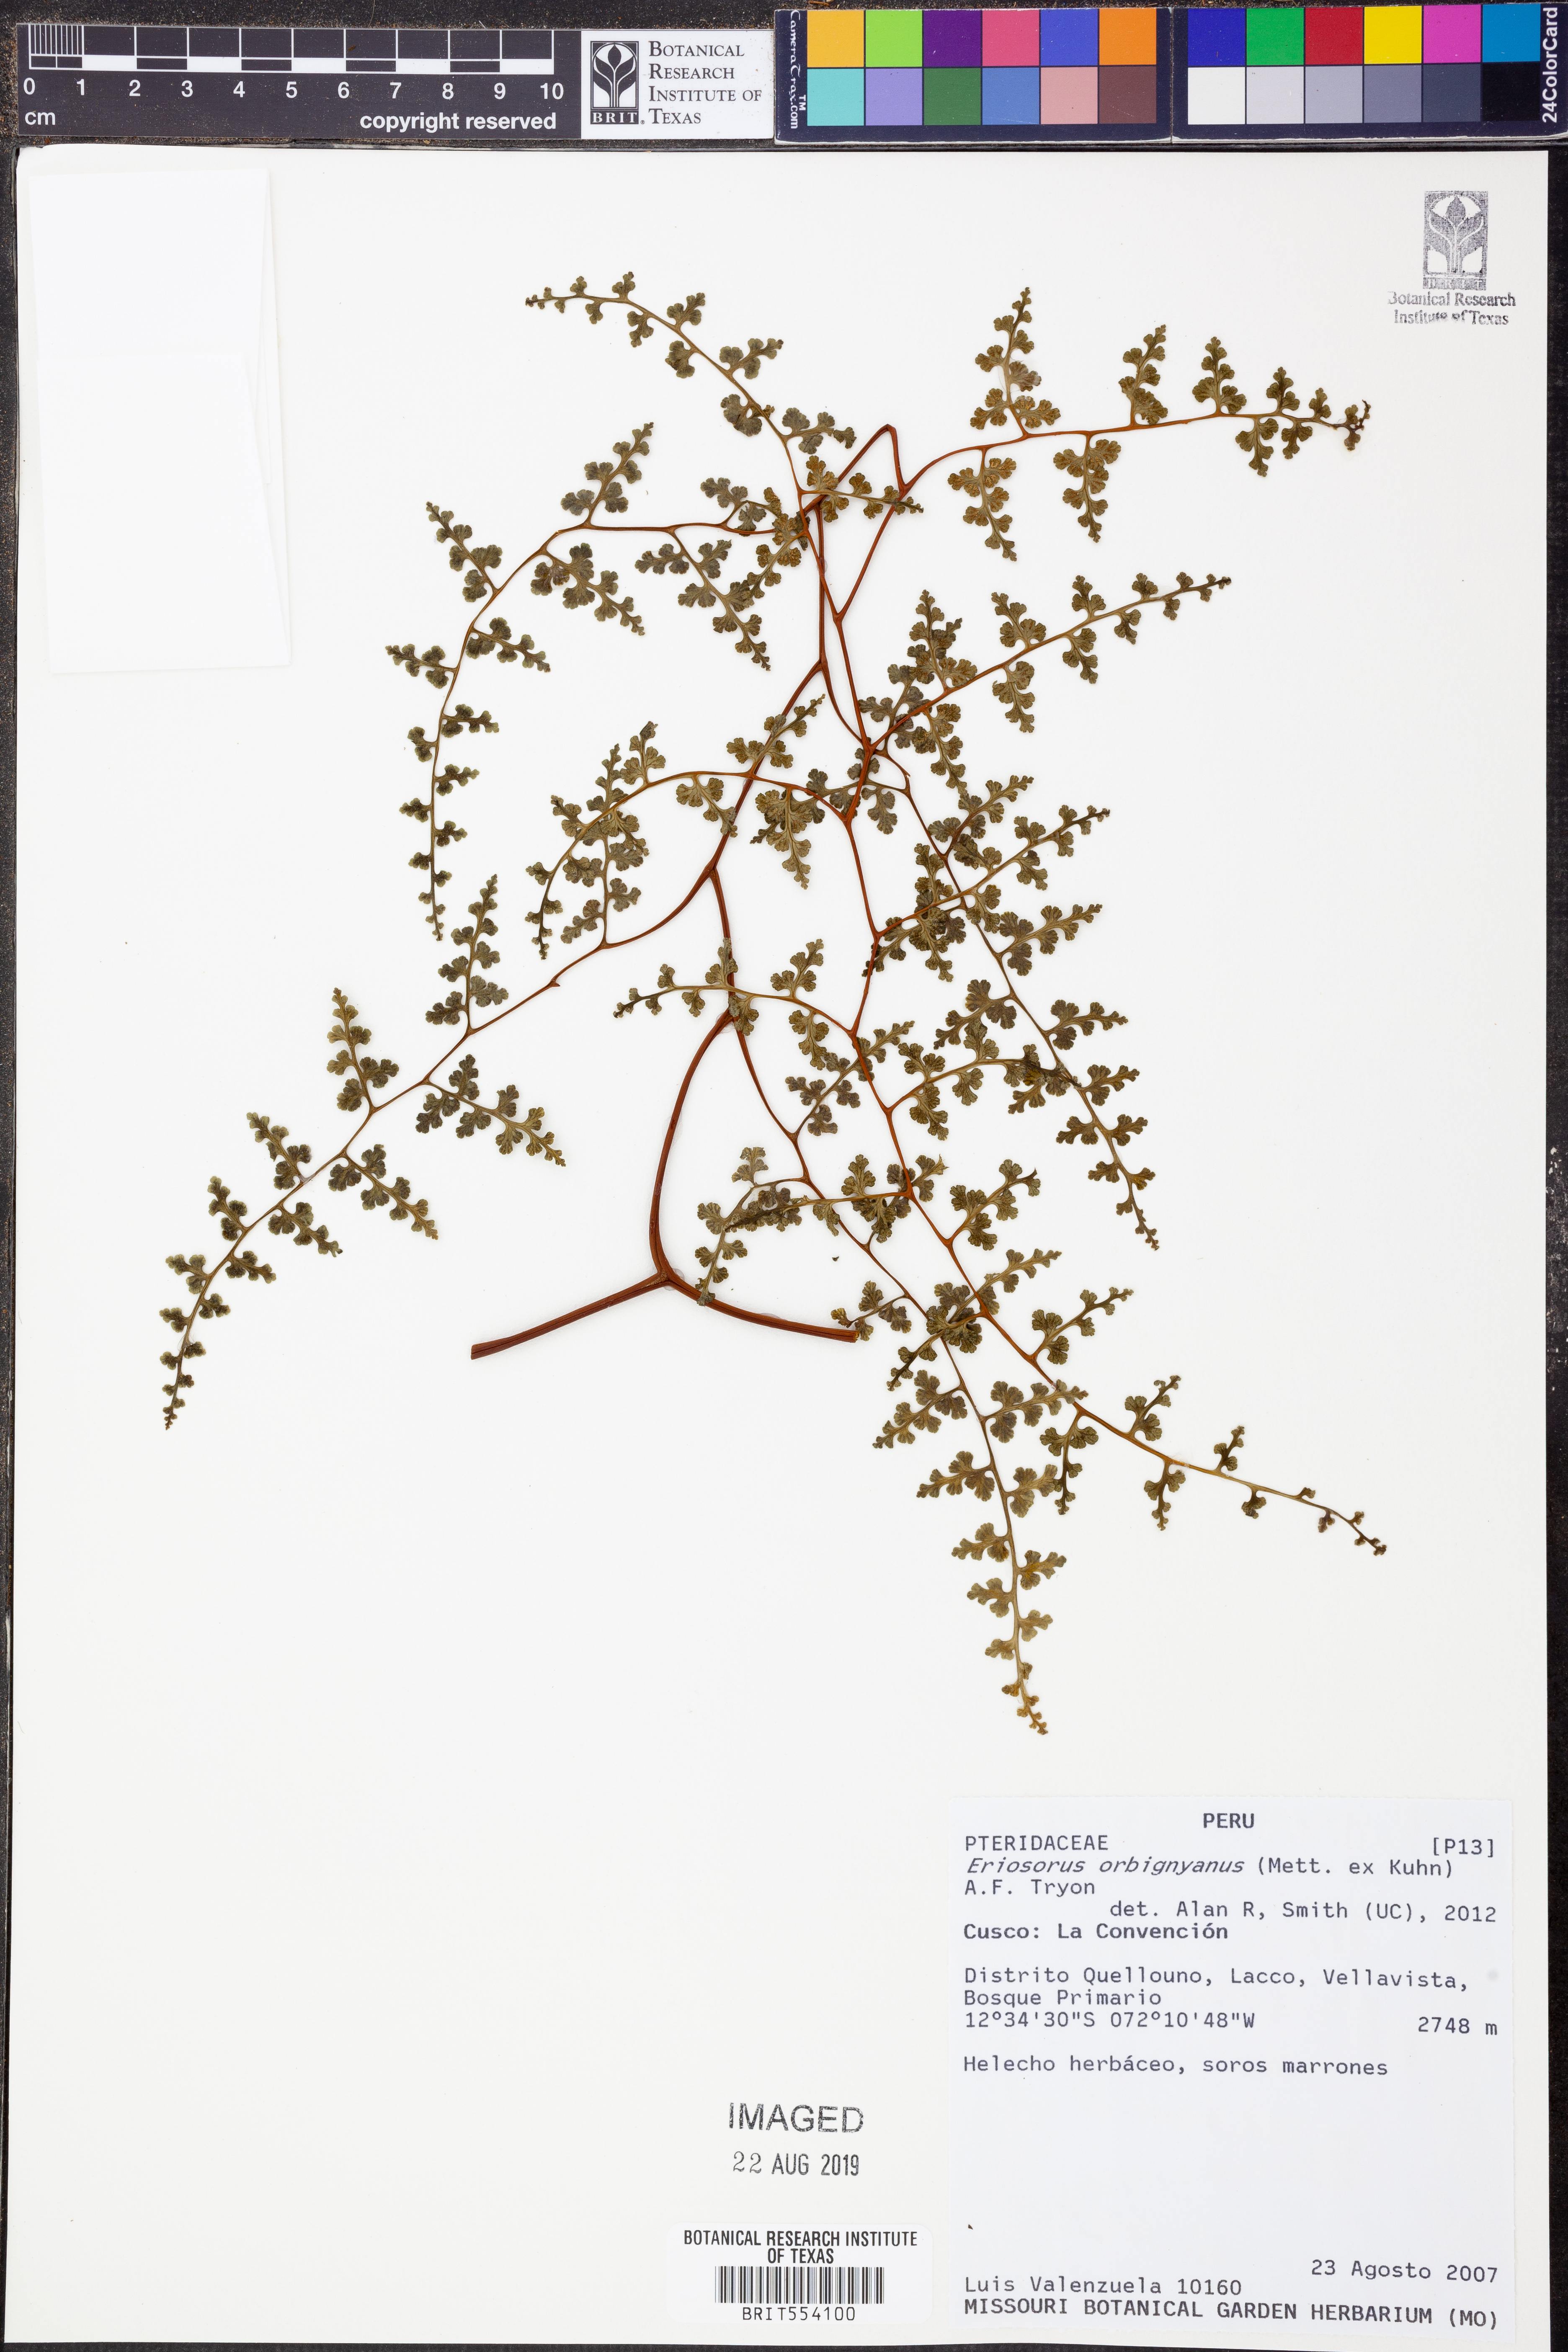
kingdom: Plantae
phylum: Tracheophyta
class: Polypodiopsida
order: Polypodiales
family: Pteridaceae
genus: Jamesonia
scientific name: Jamesonia orbignyana
